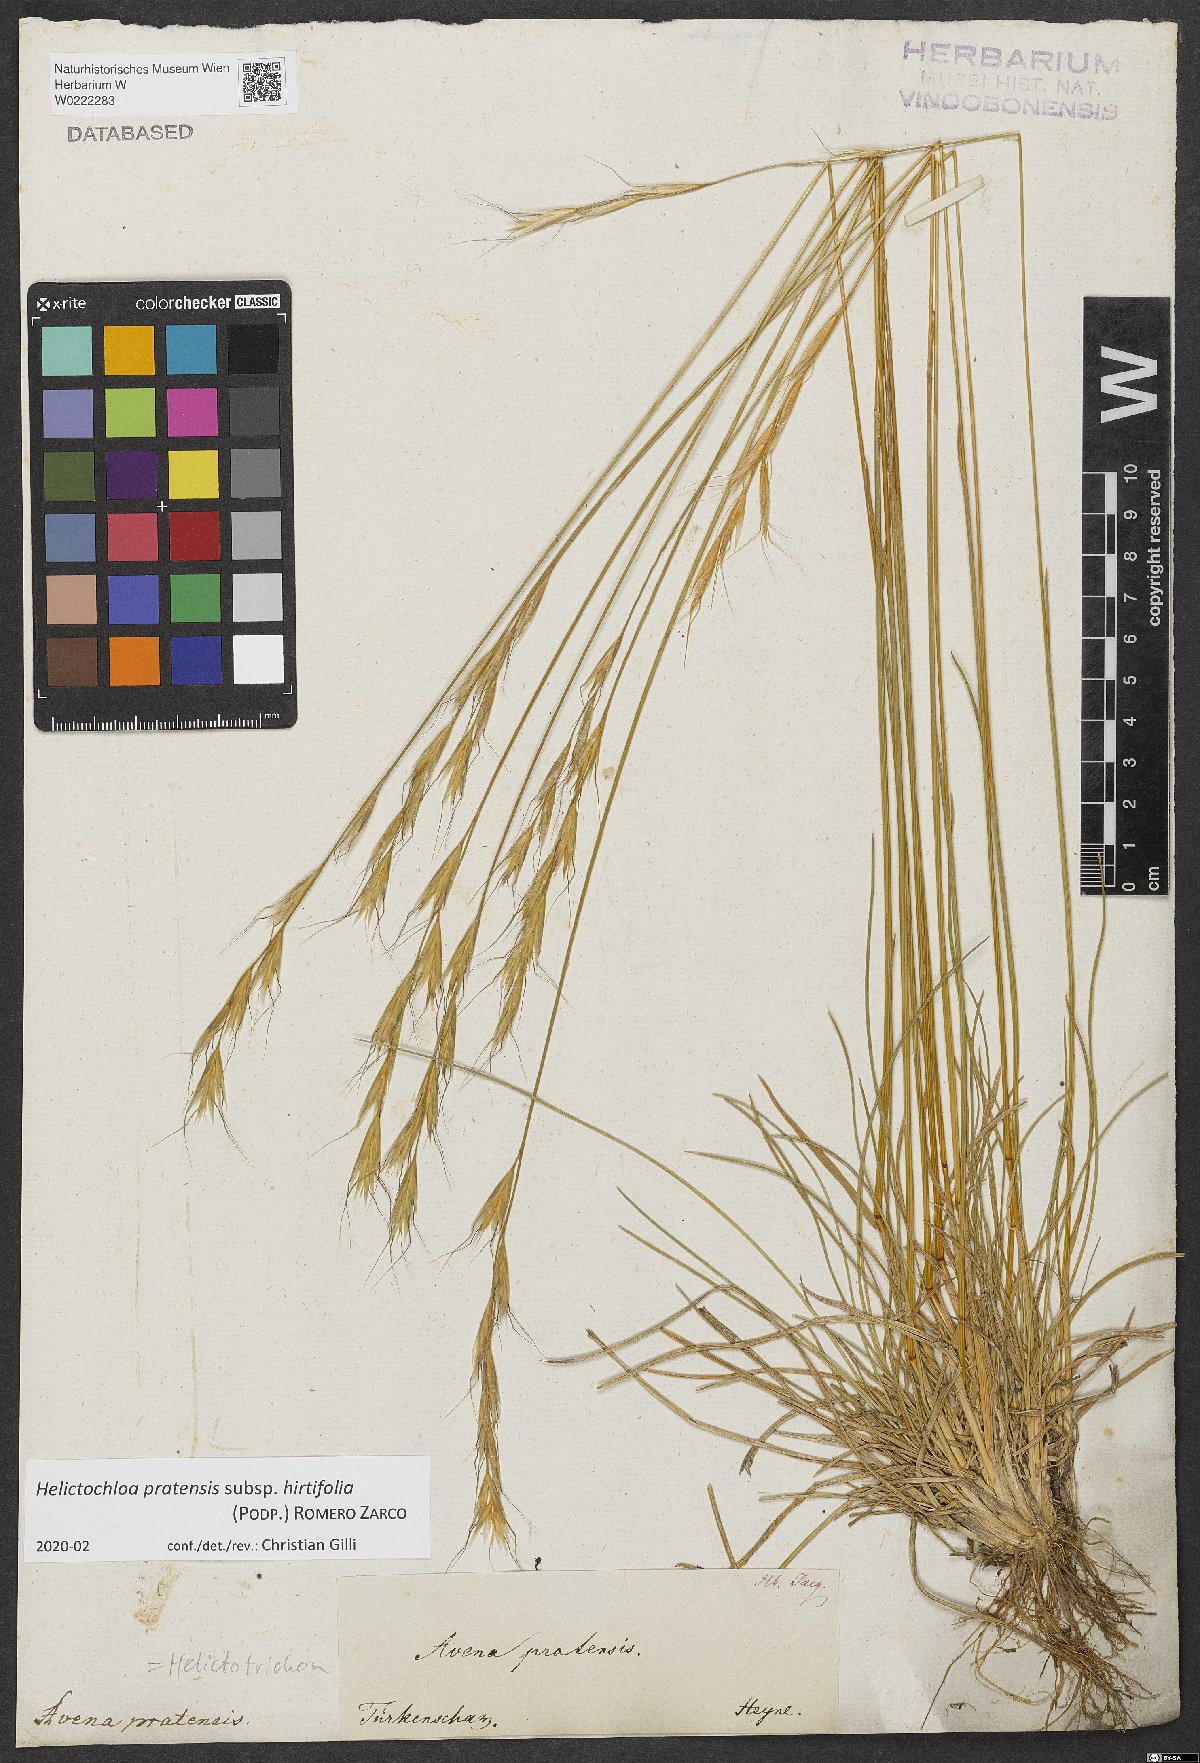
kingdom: Plantae
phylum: Tracheophyta
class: Liliopsida
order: Poales
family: Poaceae
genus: Helictochloa
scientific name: Helictochloa pratensis
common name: Meadow oat grass
